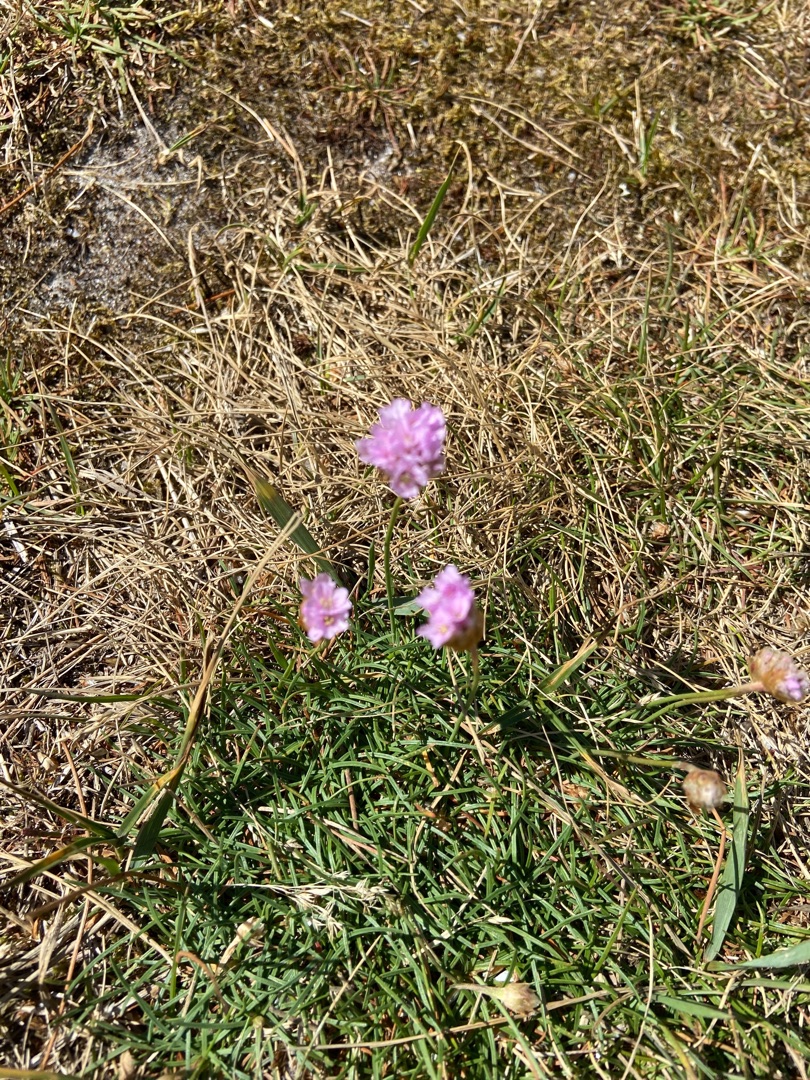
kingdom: Plantae
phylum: Tracheophyta
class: Magnoliopsida
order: Caryophyllales
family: Plumbaginaceae
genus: Armeria
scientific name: Armeria maritima
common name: Engelskgræs
